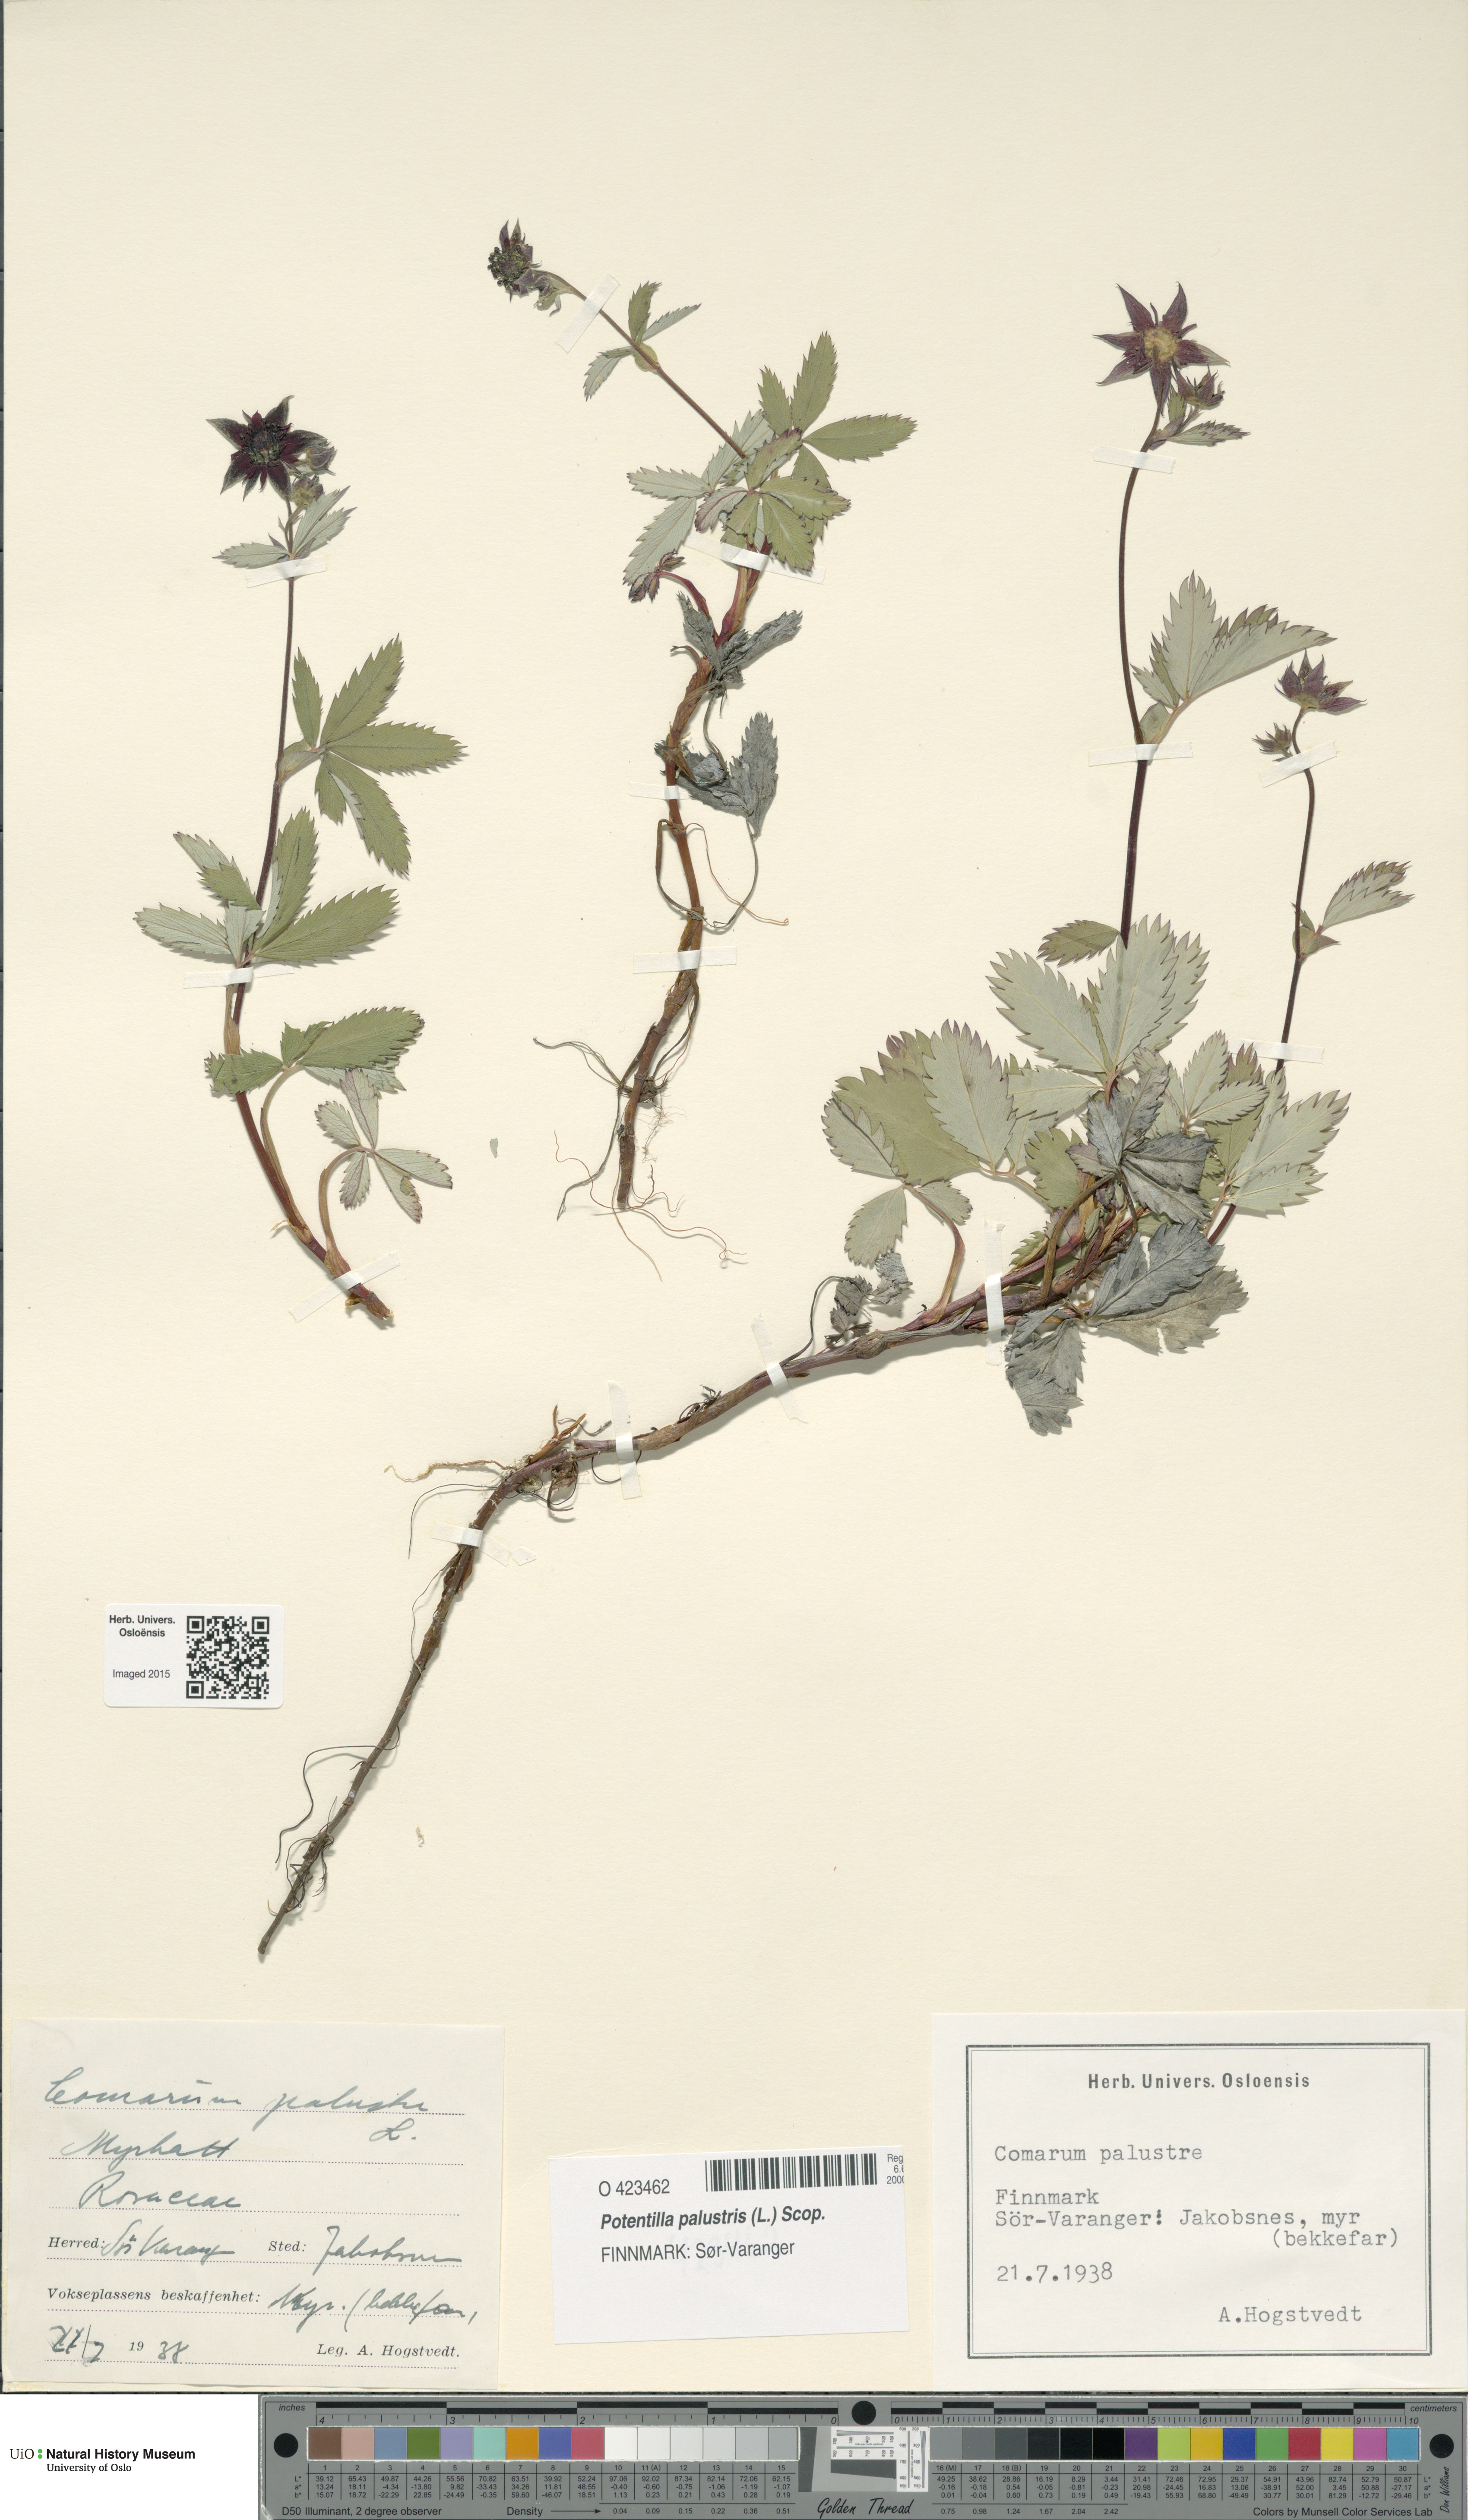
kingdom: Plantae
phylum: Tracheophyta
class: Magnoliopsida
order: Rosales
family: Rosaceae
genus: Comarum
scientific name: Comarum palustre
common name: Marsh cinquefoil
